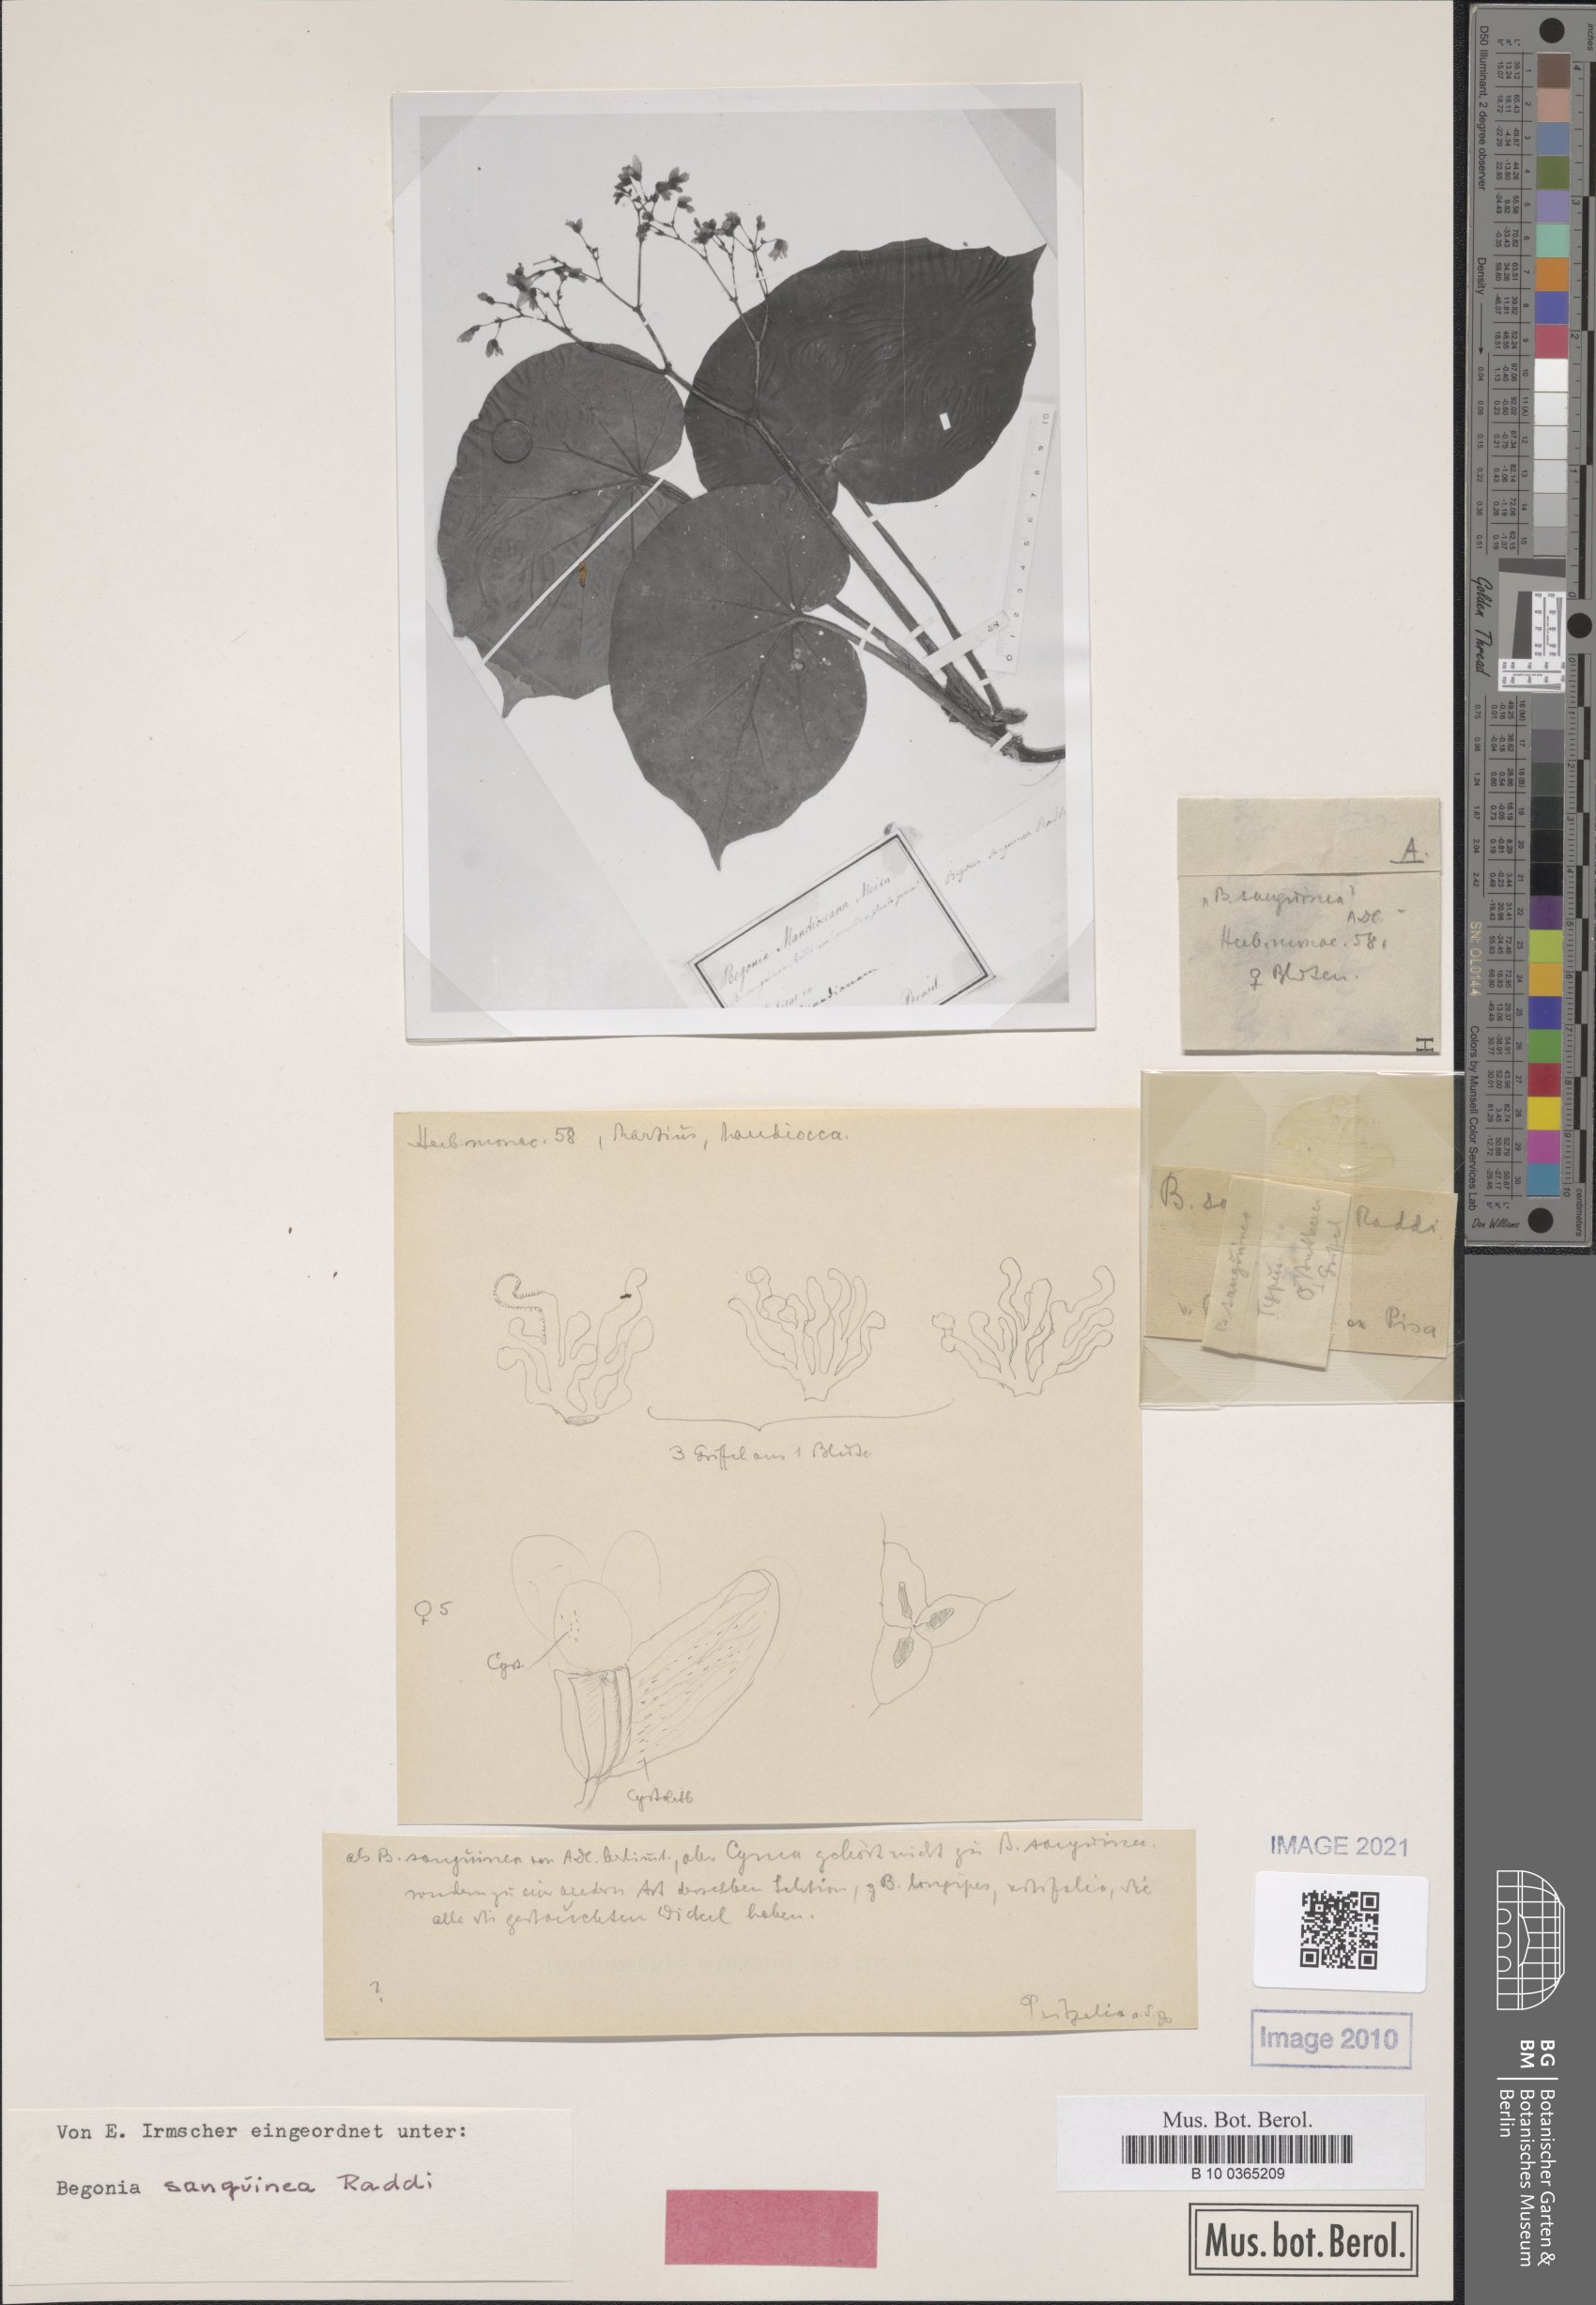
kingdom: Plantae
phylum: Tracheophyta
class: Magnoliopsida
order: Cucurbitales
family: Begoniaceae
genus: Begonia
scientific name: Begonia sanguinea
